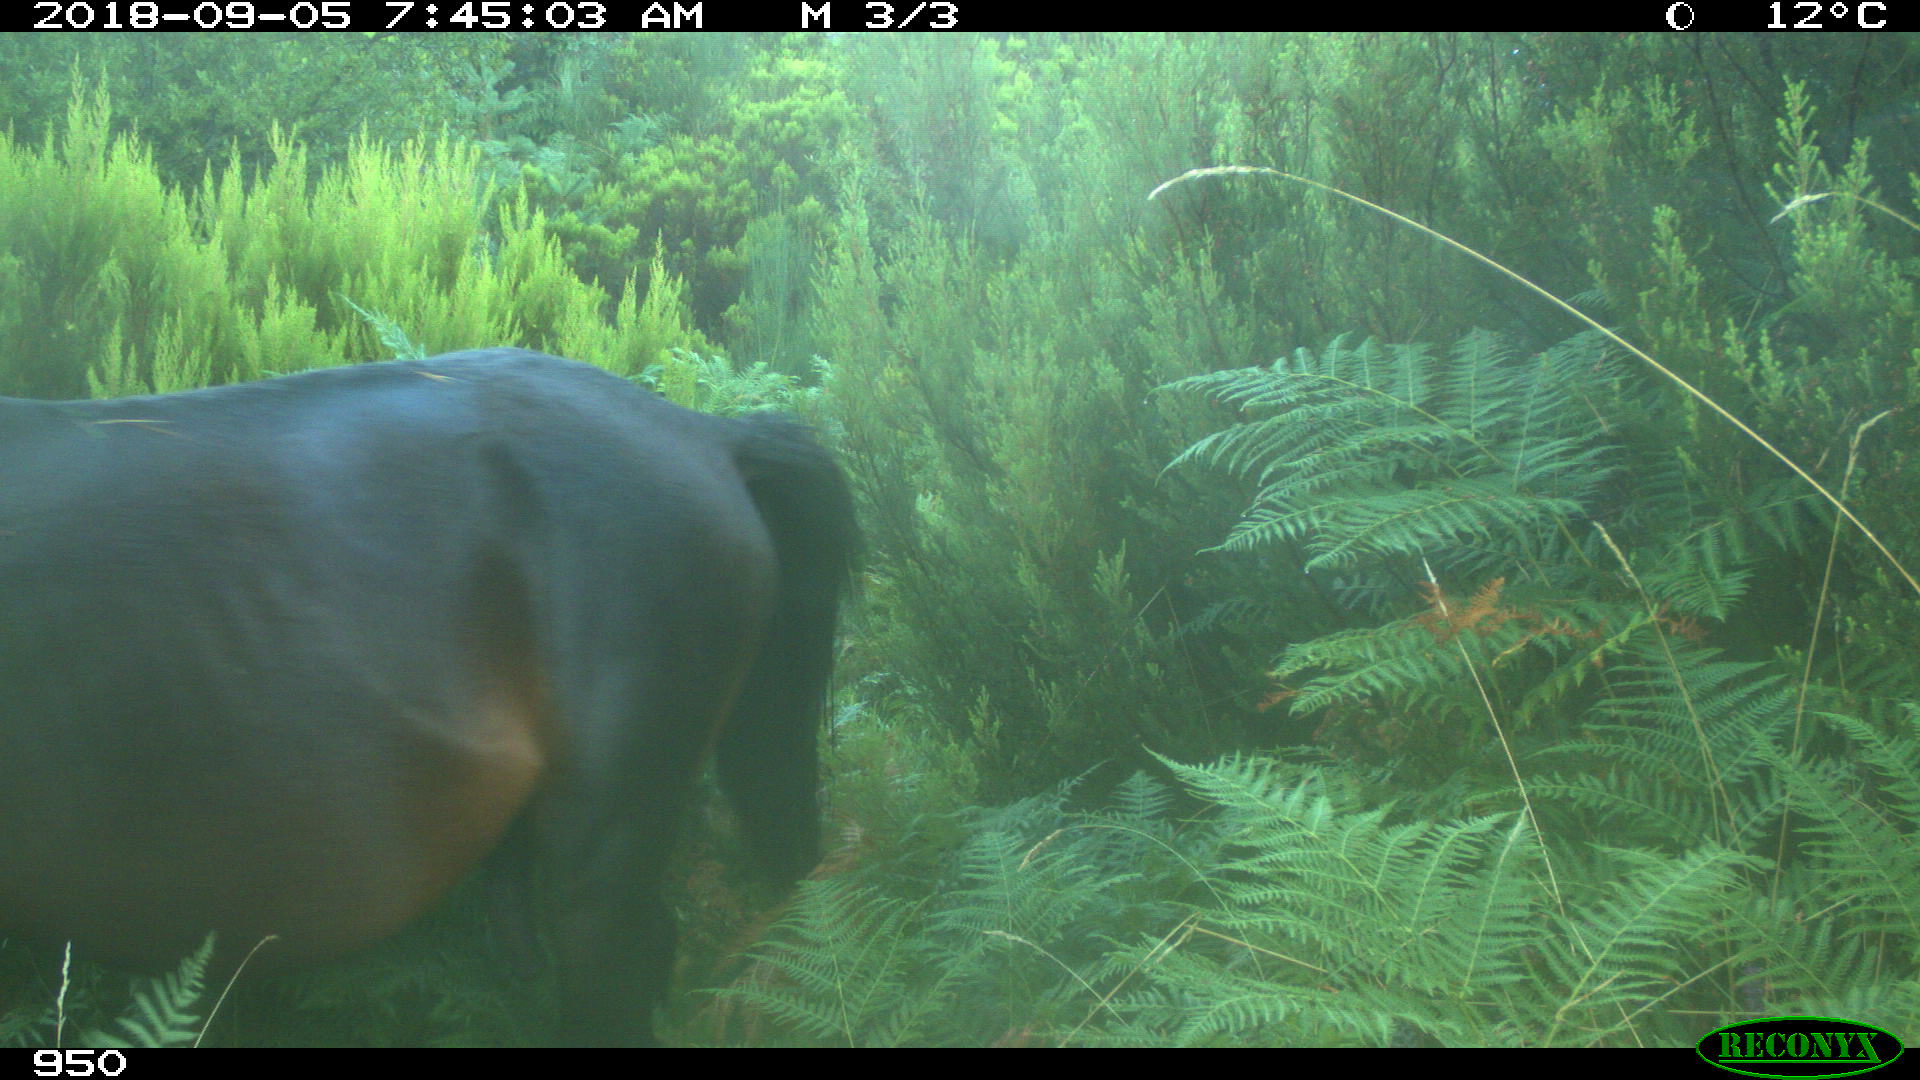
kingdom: Animalia
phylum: Chordata
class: Mammalia
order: Perissodactyla
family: Equidae
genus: Equus
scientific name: Equus caballus
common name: Horse
